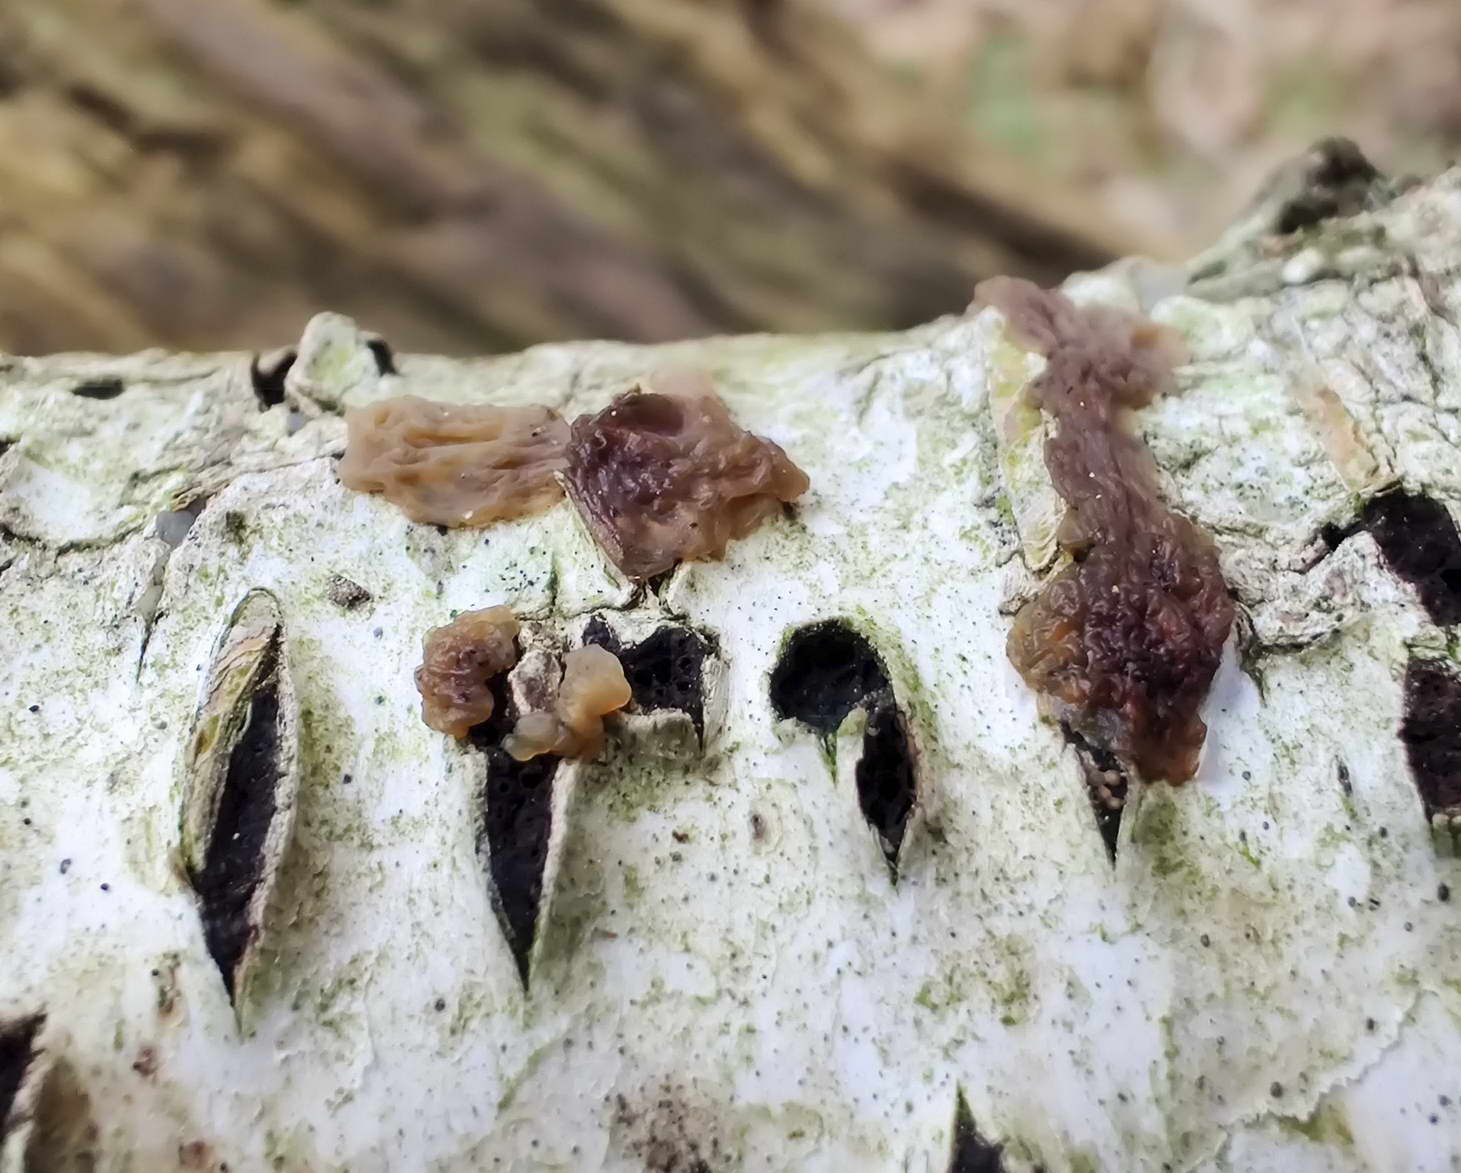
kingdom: Fungi
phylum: Basidiomycota
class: Agaricomycetes
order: Auriculariales
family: Hyaloriaceae
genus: Myxarium
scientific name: Myxarium hyalinum
